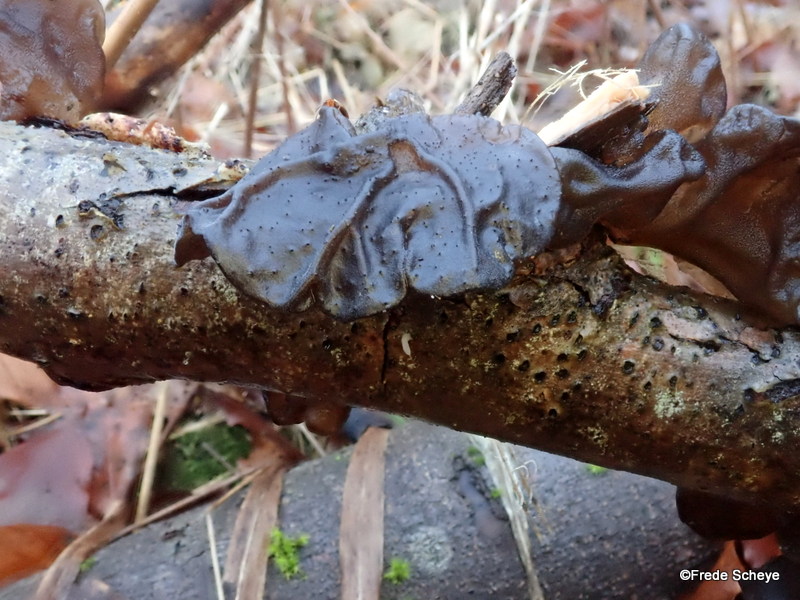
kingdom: Fungi
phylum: Basidiomycota
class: Agaricomycetes
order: Auriculariales
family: Auriculariaceae
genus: Exidia
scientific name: Exidia glandulosa
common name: ege-bævretop
